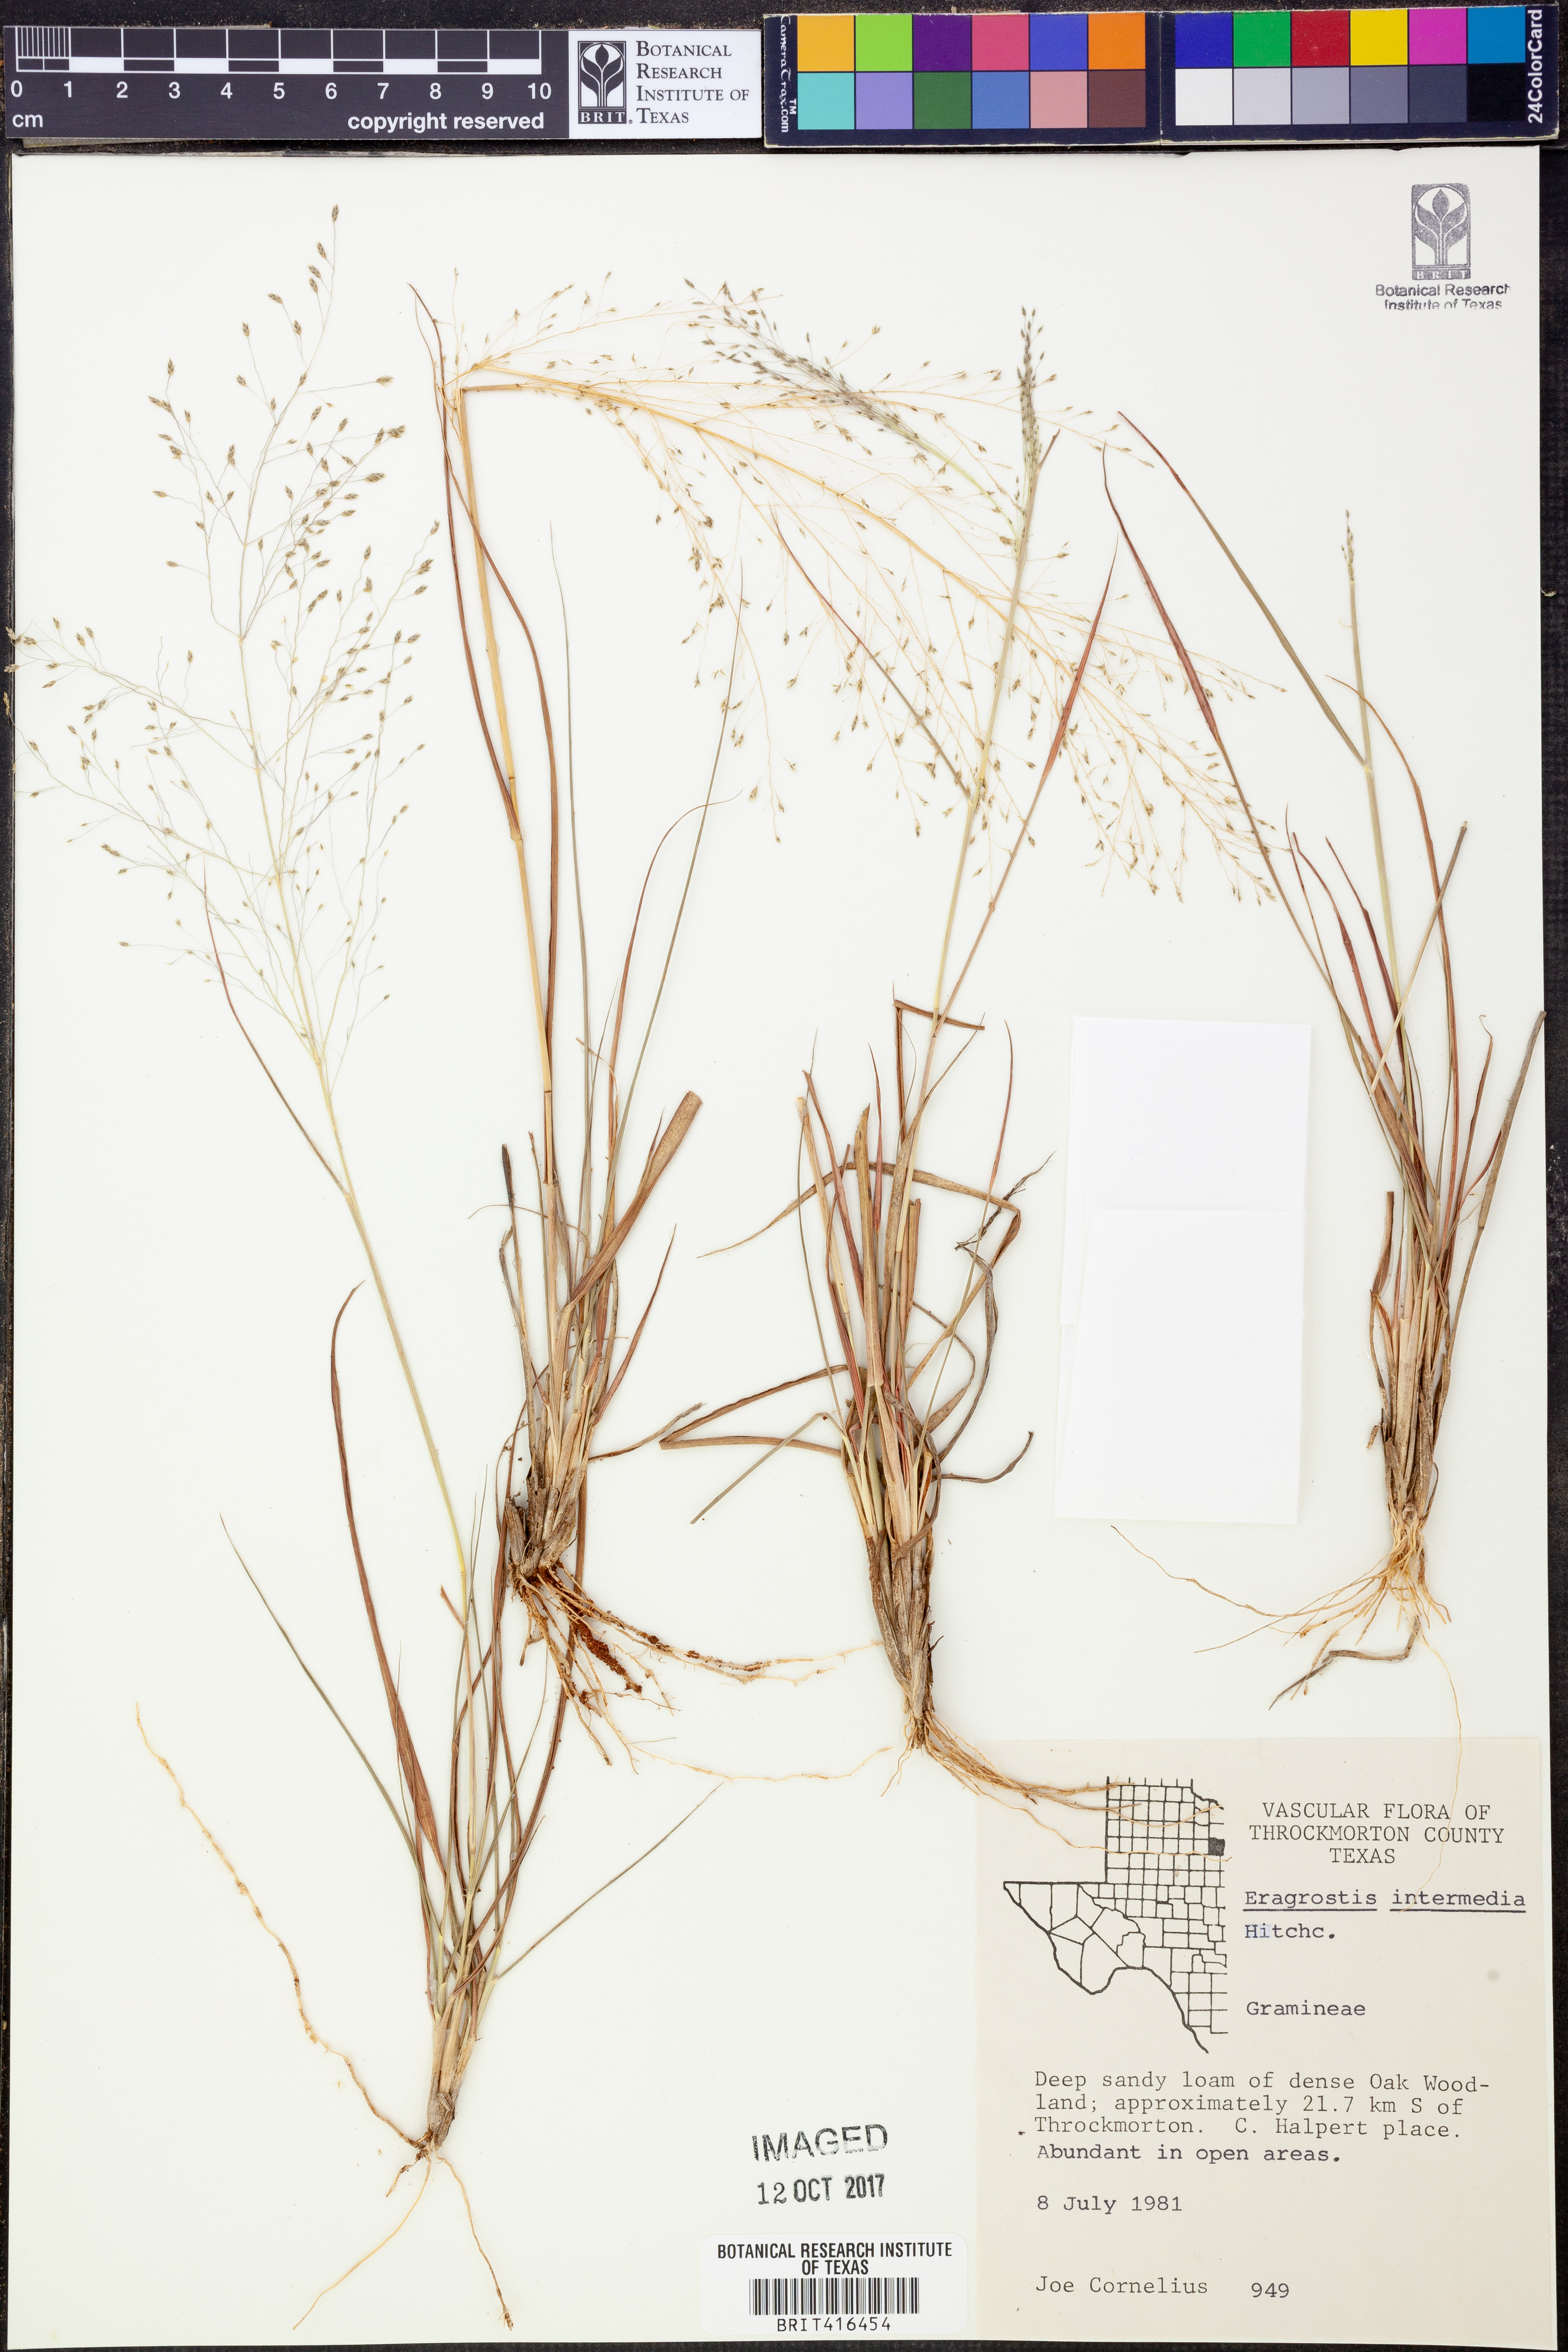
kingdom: Plantae
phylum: Tracheophyta
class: Liliopsida
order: Poales
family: Poaceae
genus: Eragrostis
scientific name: Eragrostis intermedia
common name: Plains love grass
